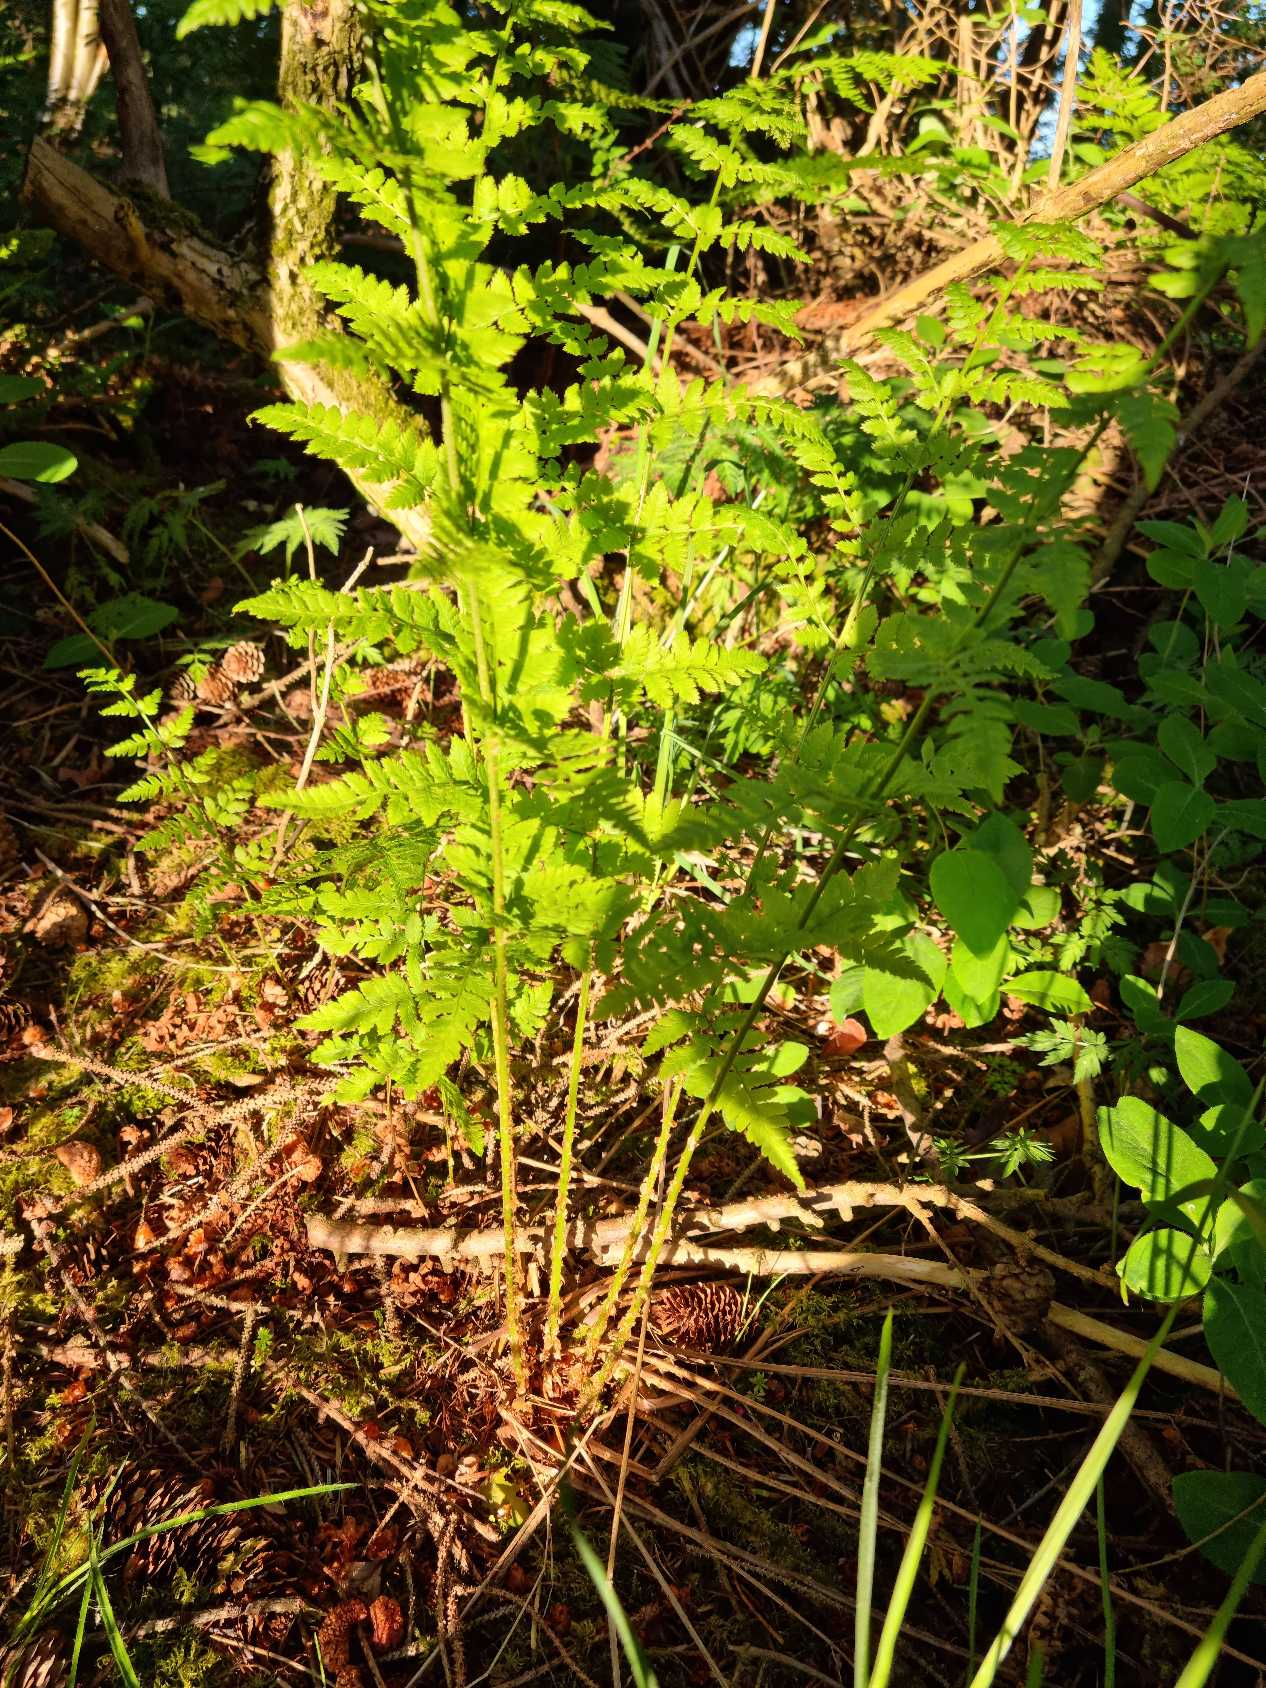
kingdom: Plantae
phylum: Tracheophyta
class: Polypodiopsida
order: Polypodiales
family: Dryopteridaceae
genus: Dryopteris
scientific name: Dryopteris carthusiana
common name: Smalbladet mangeløv
